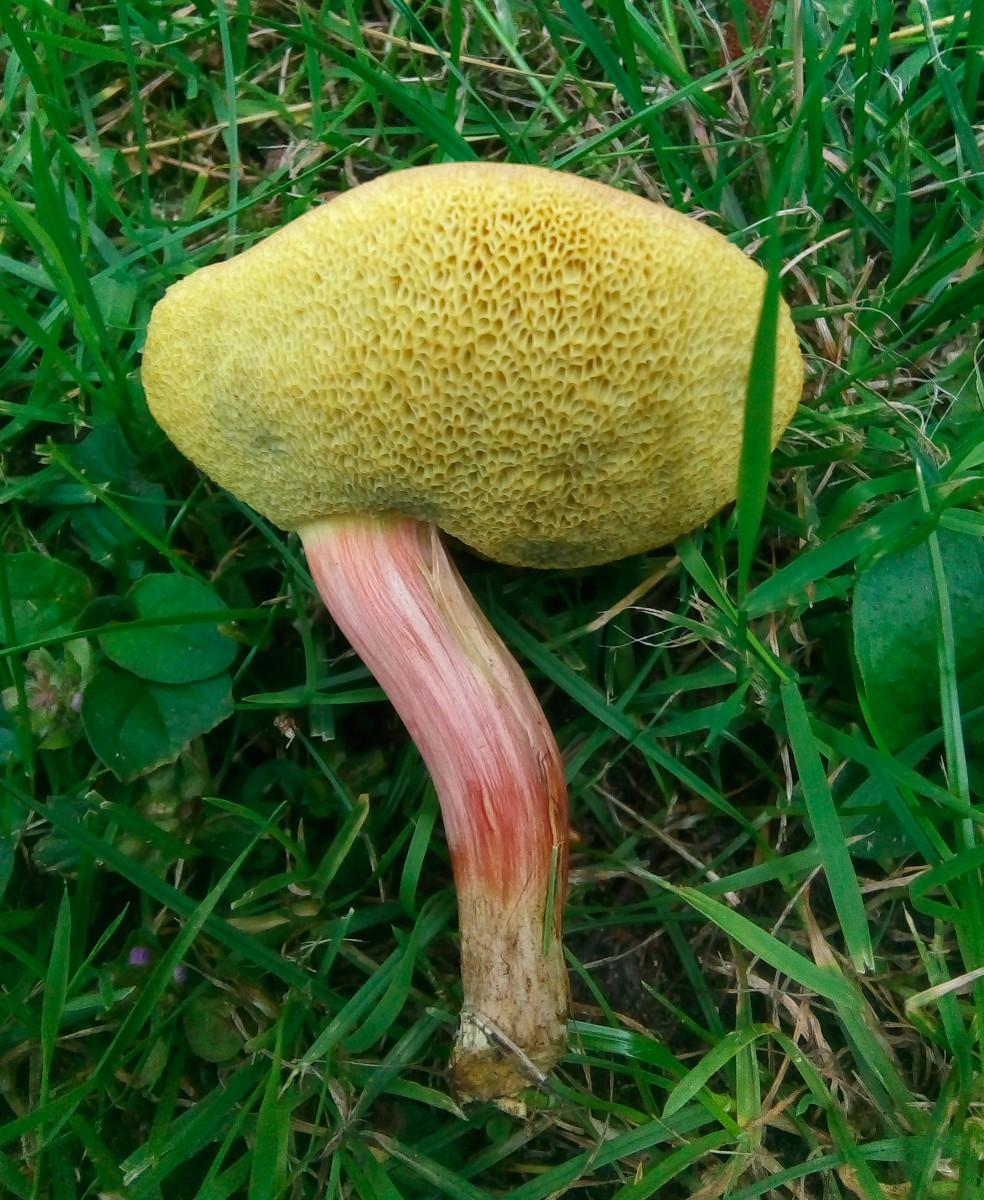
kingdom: Fungi
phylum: Basidiomycota
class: Agaricomycetes
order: Boletales
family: Boletaceae
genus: Hortiboletus
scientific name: Hortiboletus bubalinus
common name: aurora-rørhat
